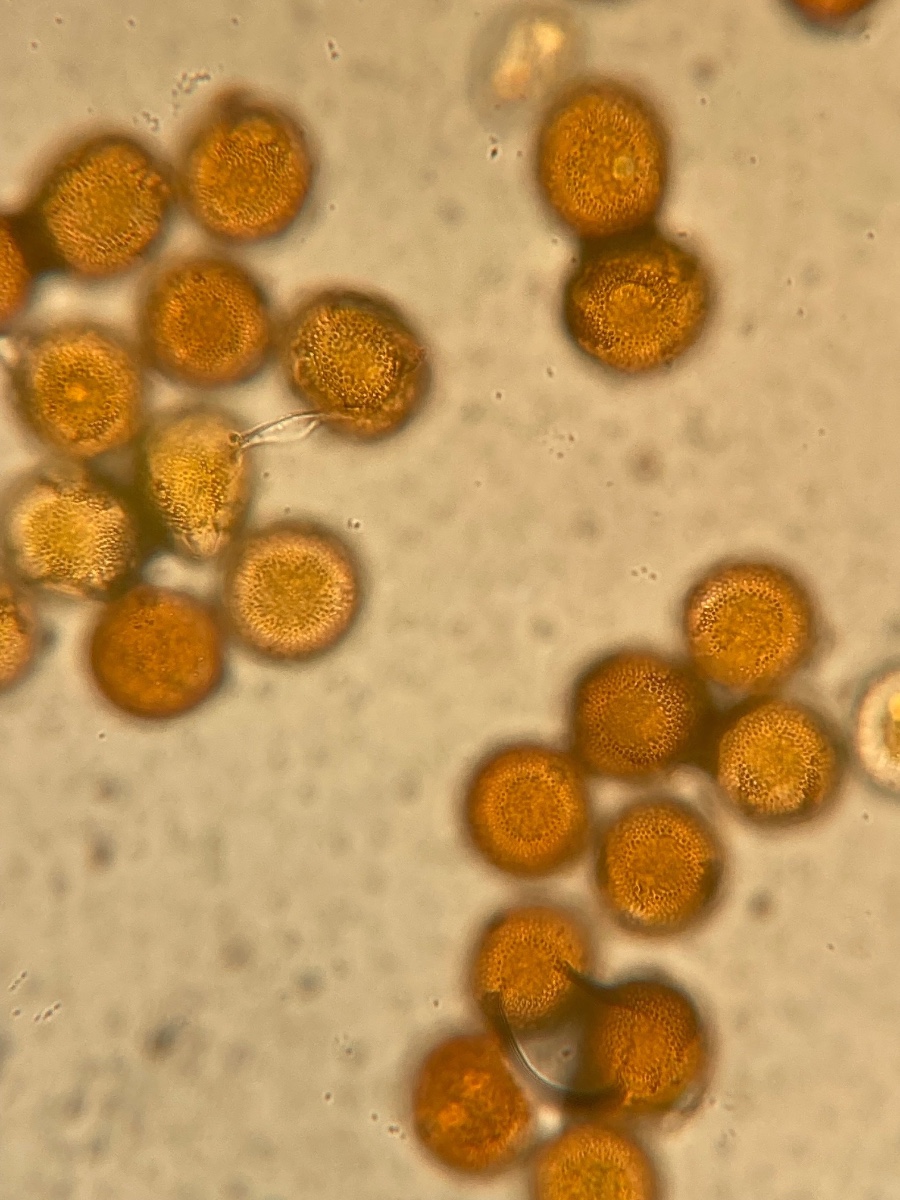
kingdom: Fungi
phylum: Basidiomycota
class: Pucciniomycetes
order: Pucciniales
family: Pucciniaceae
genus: Uromyces
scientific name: Uromyces armeriae
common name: Thrift rust
